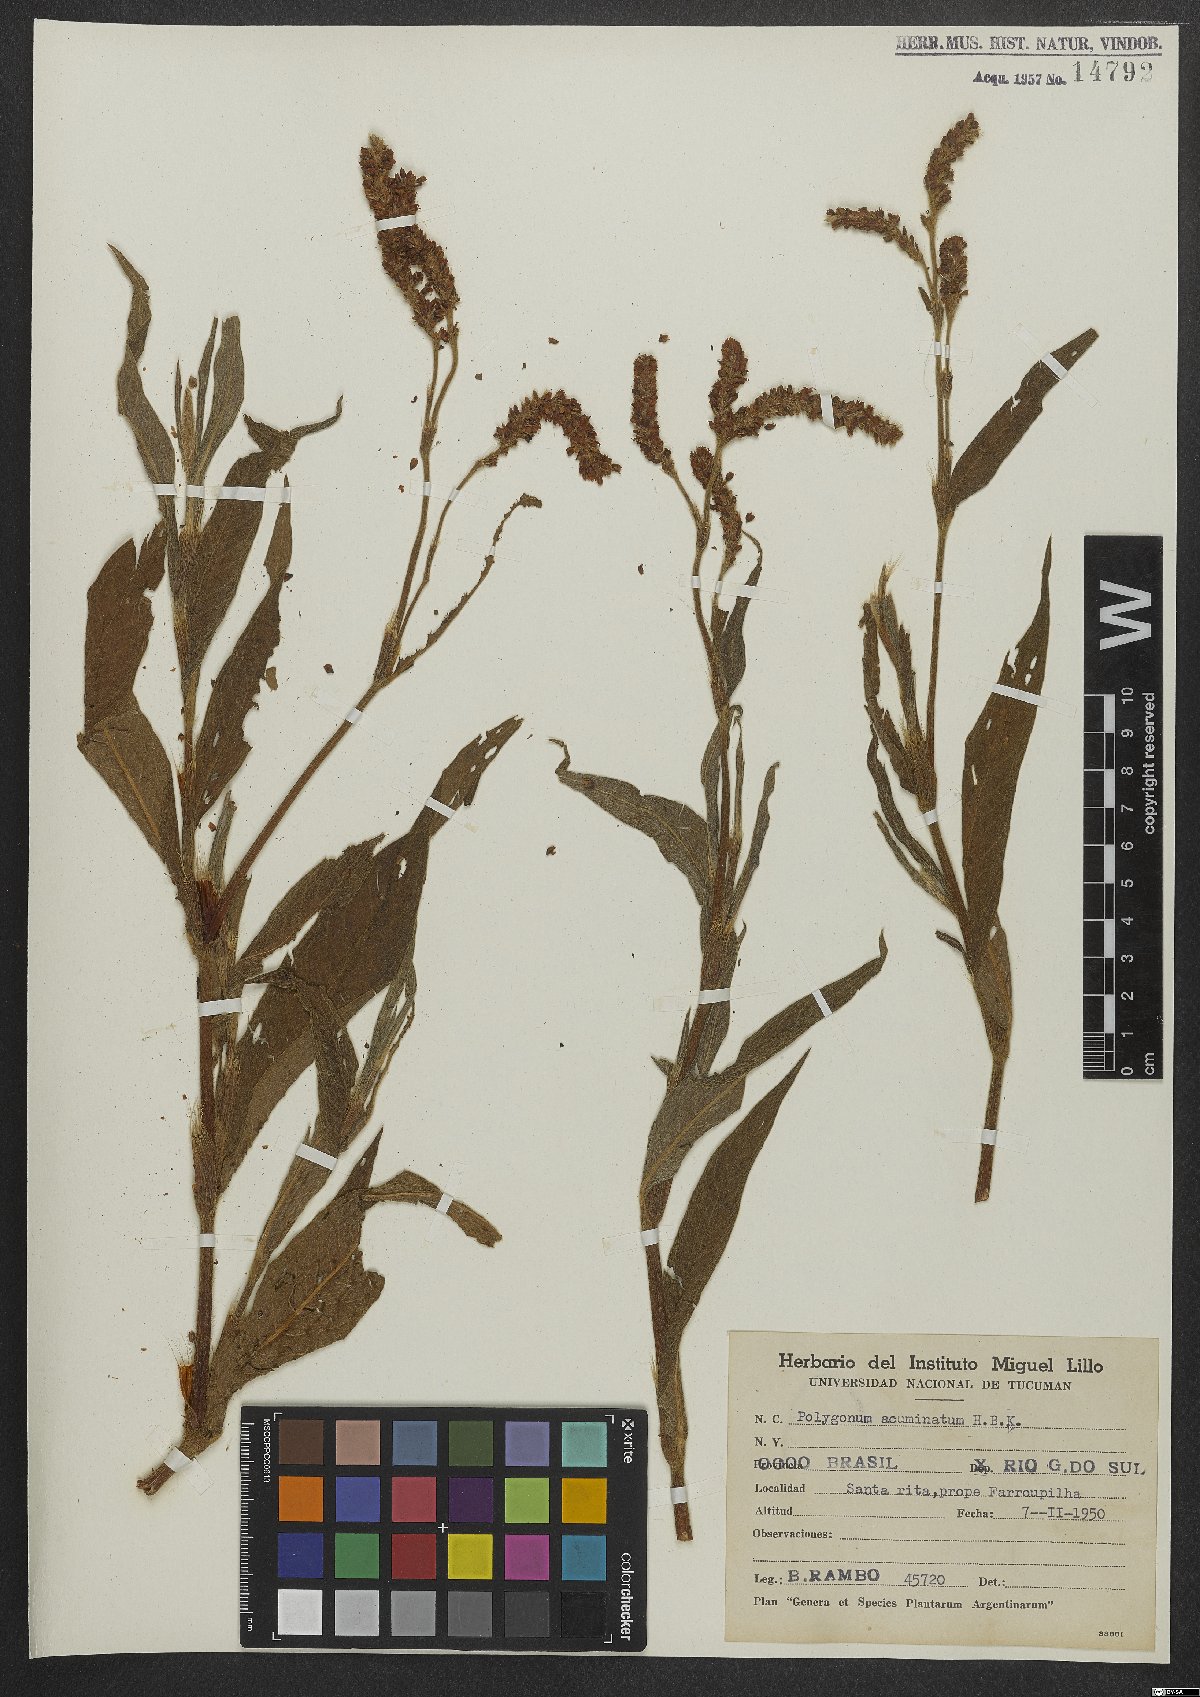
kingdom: Plantae
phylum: Tracheophyta
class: Magnoliopsida
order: Caryophyllales
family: Polygonaceae
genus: Persicaria
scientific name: Persicaria acuminata
